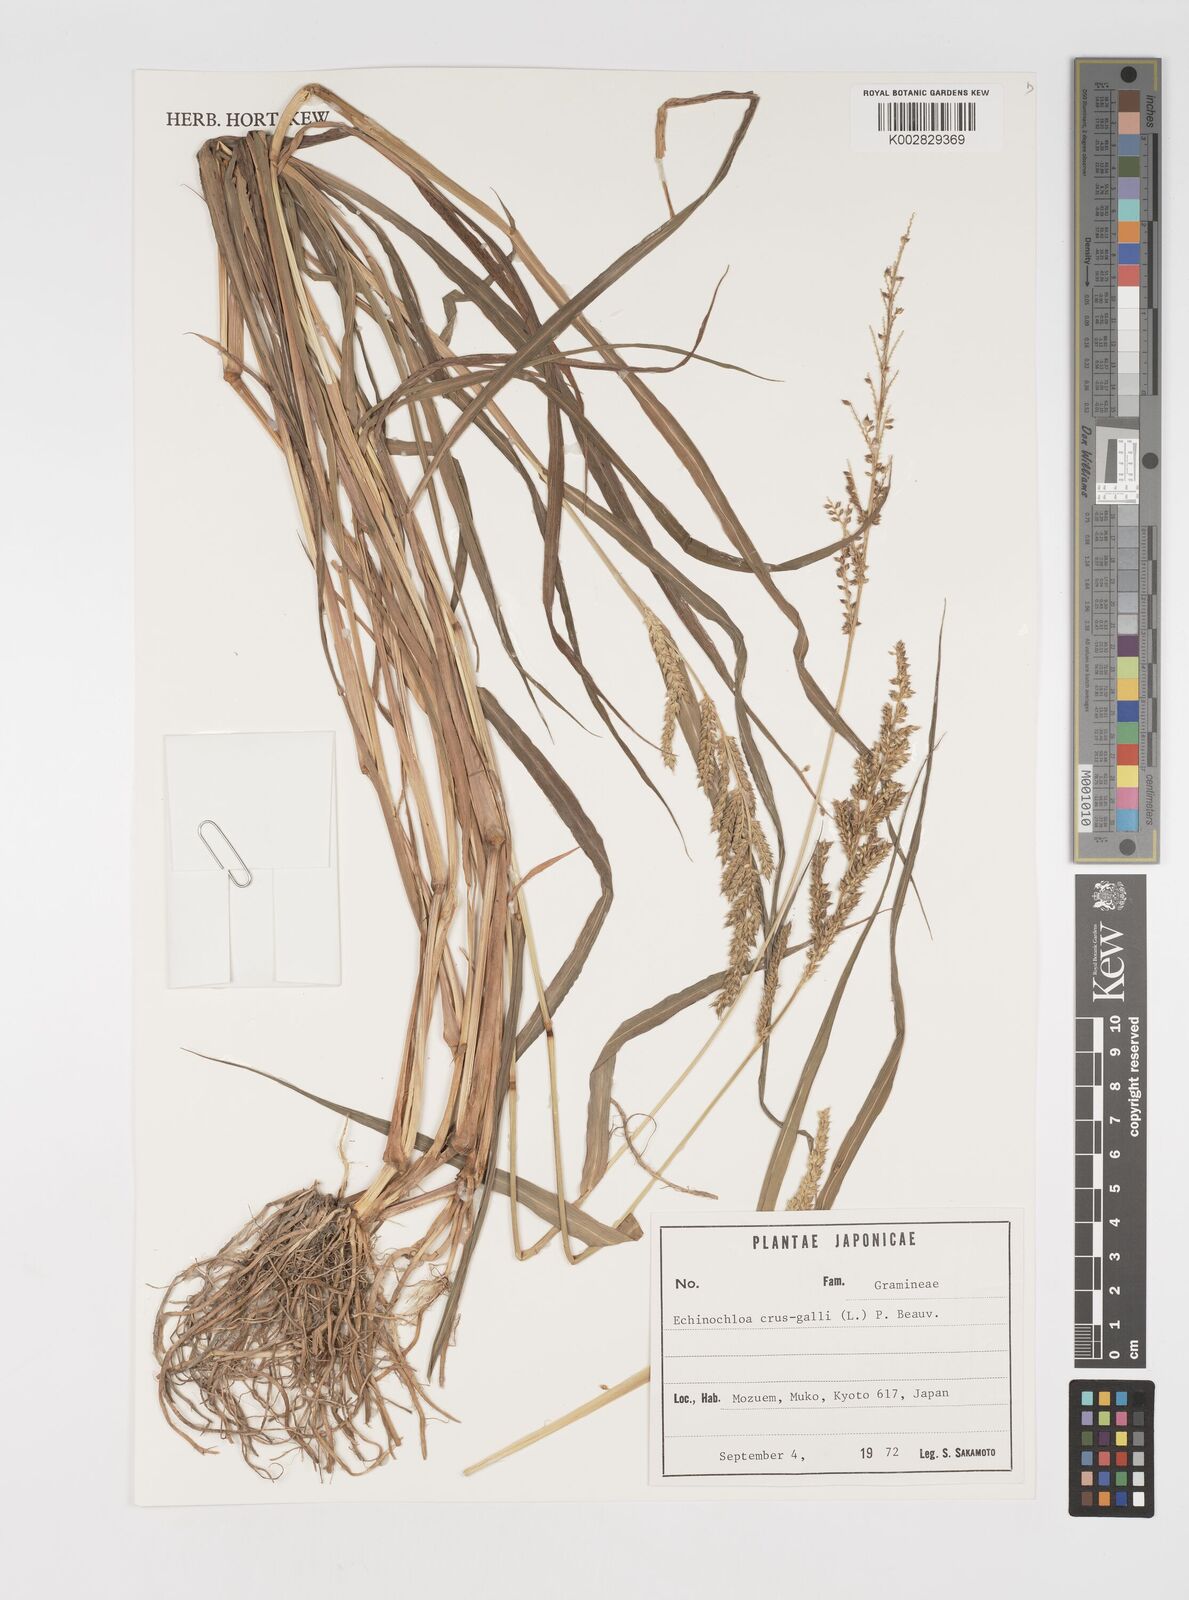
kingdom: Plantae
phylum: Tracheophyta
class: Liliopsida
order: Poales
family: Poaceae
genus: Echinochloa
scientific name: Echinochloa crus-galli
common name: Cockspur
